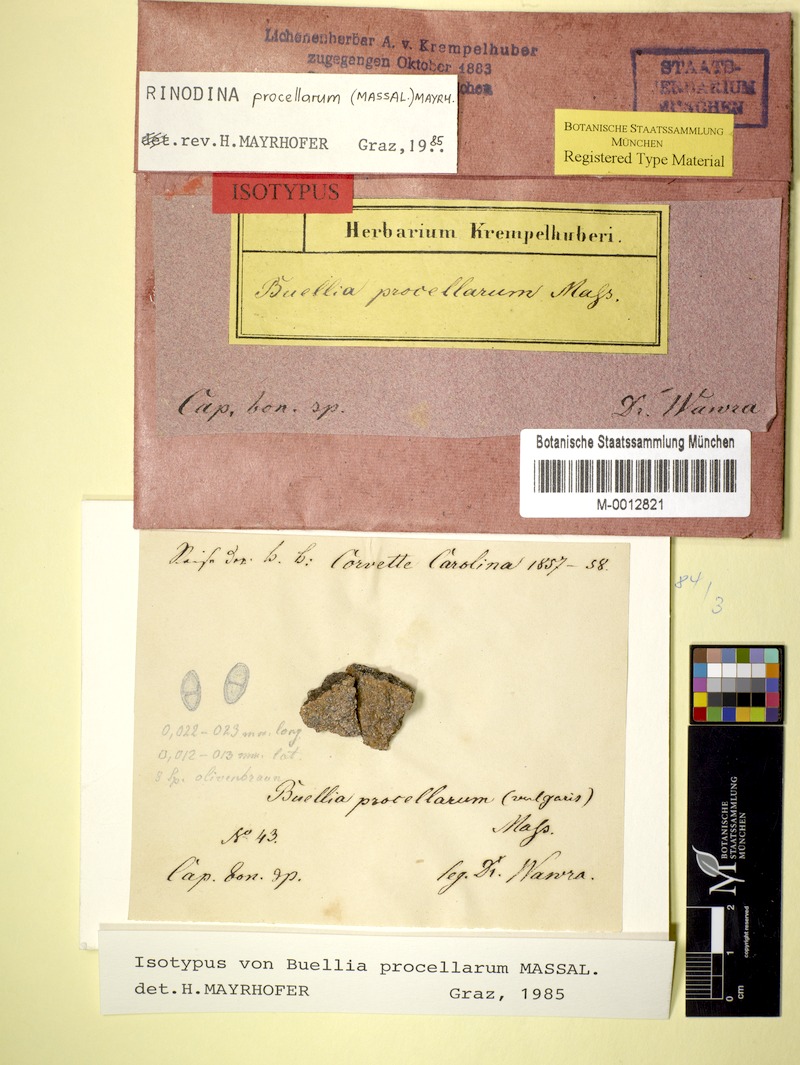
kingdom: Fungi
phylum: Ascomycota
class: Lecanoromycetes
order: Caliciales
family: Caliciaceae
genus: Buellia
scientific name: Buellia procellarum
